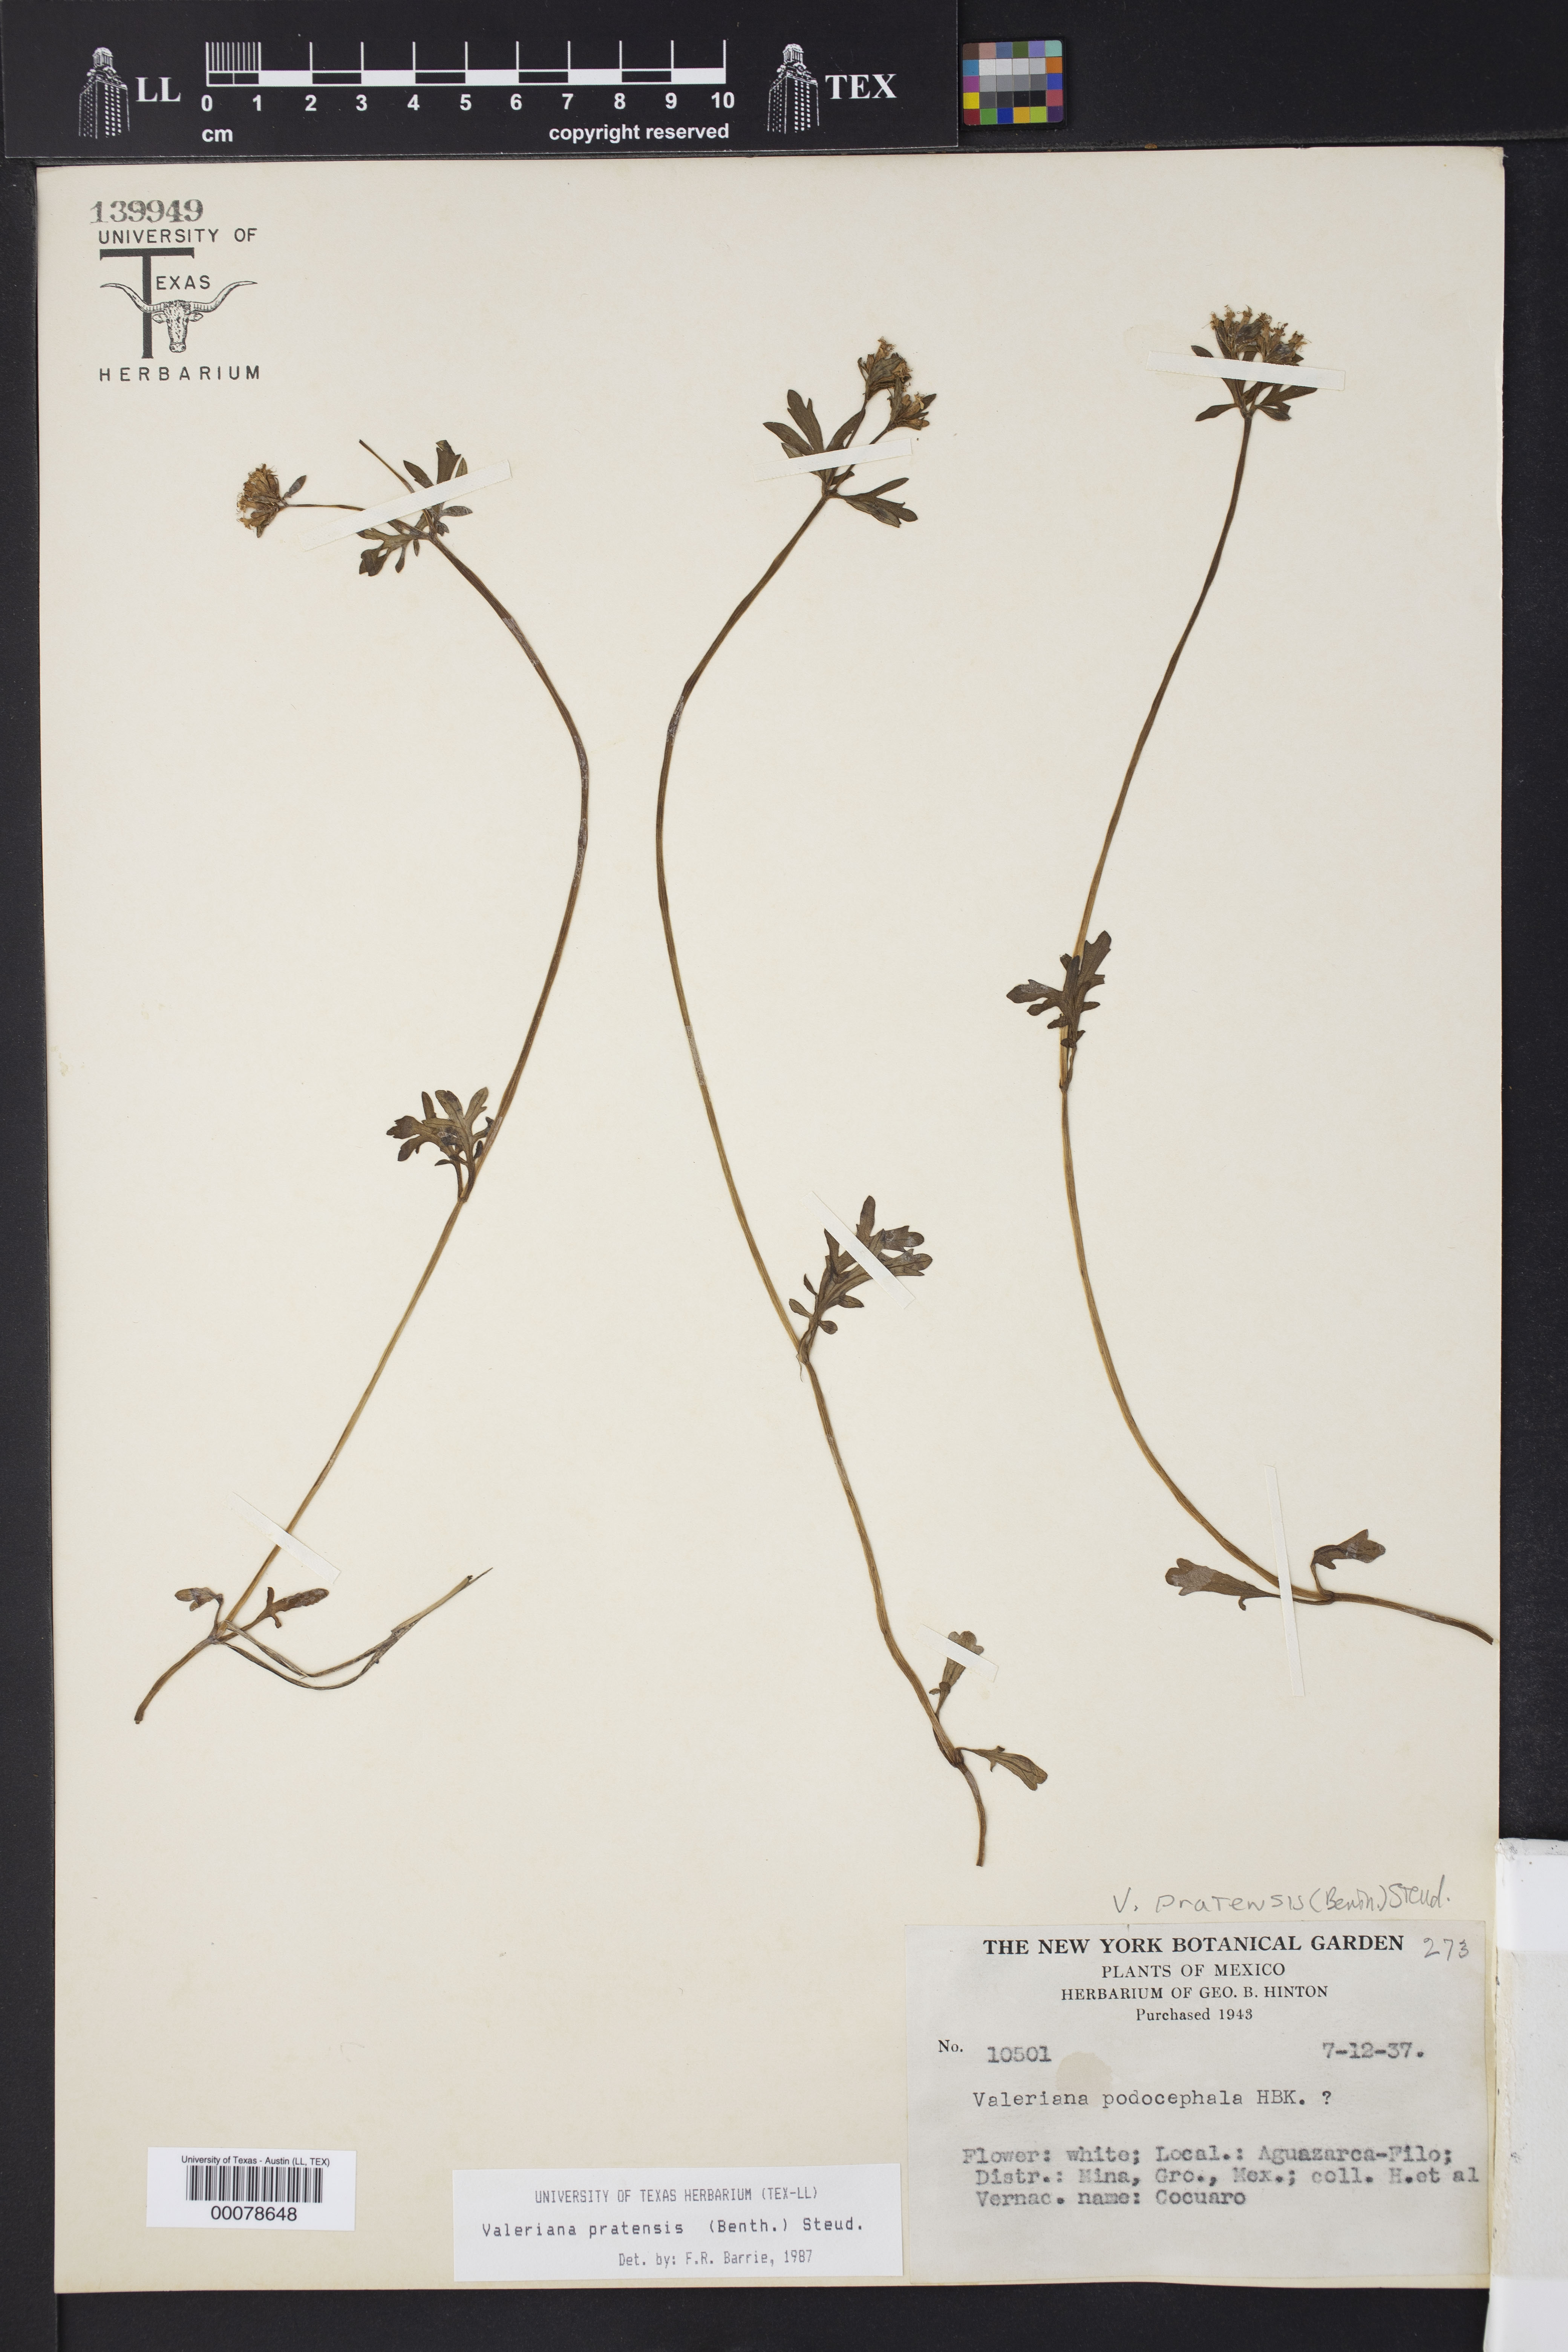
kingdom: Plantae
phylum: Tracheophyta
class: Magnoliopsida
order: Dipsacales
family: Caprifoliaceae
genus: Valeriana
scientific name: Valeriana pratensis
